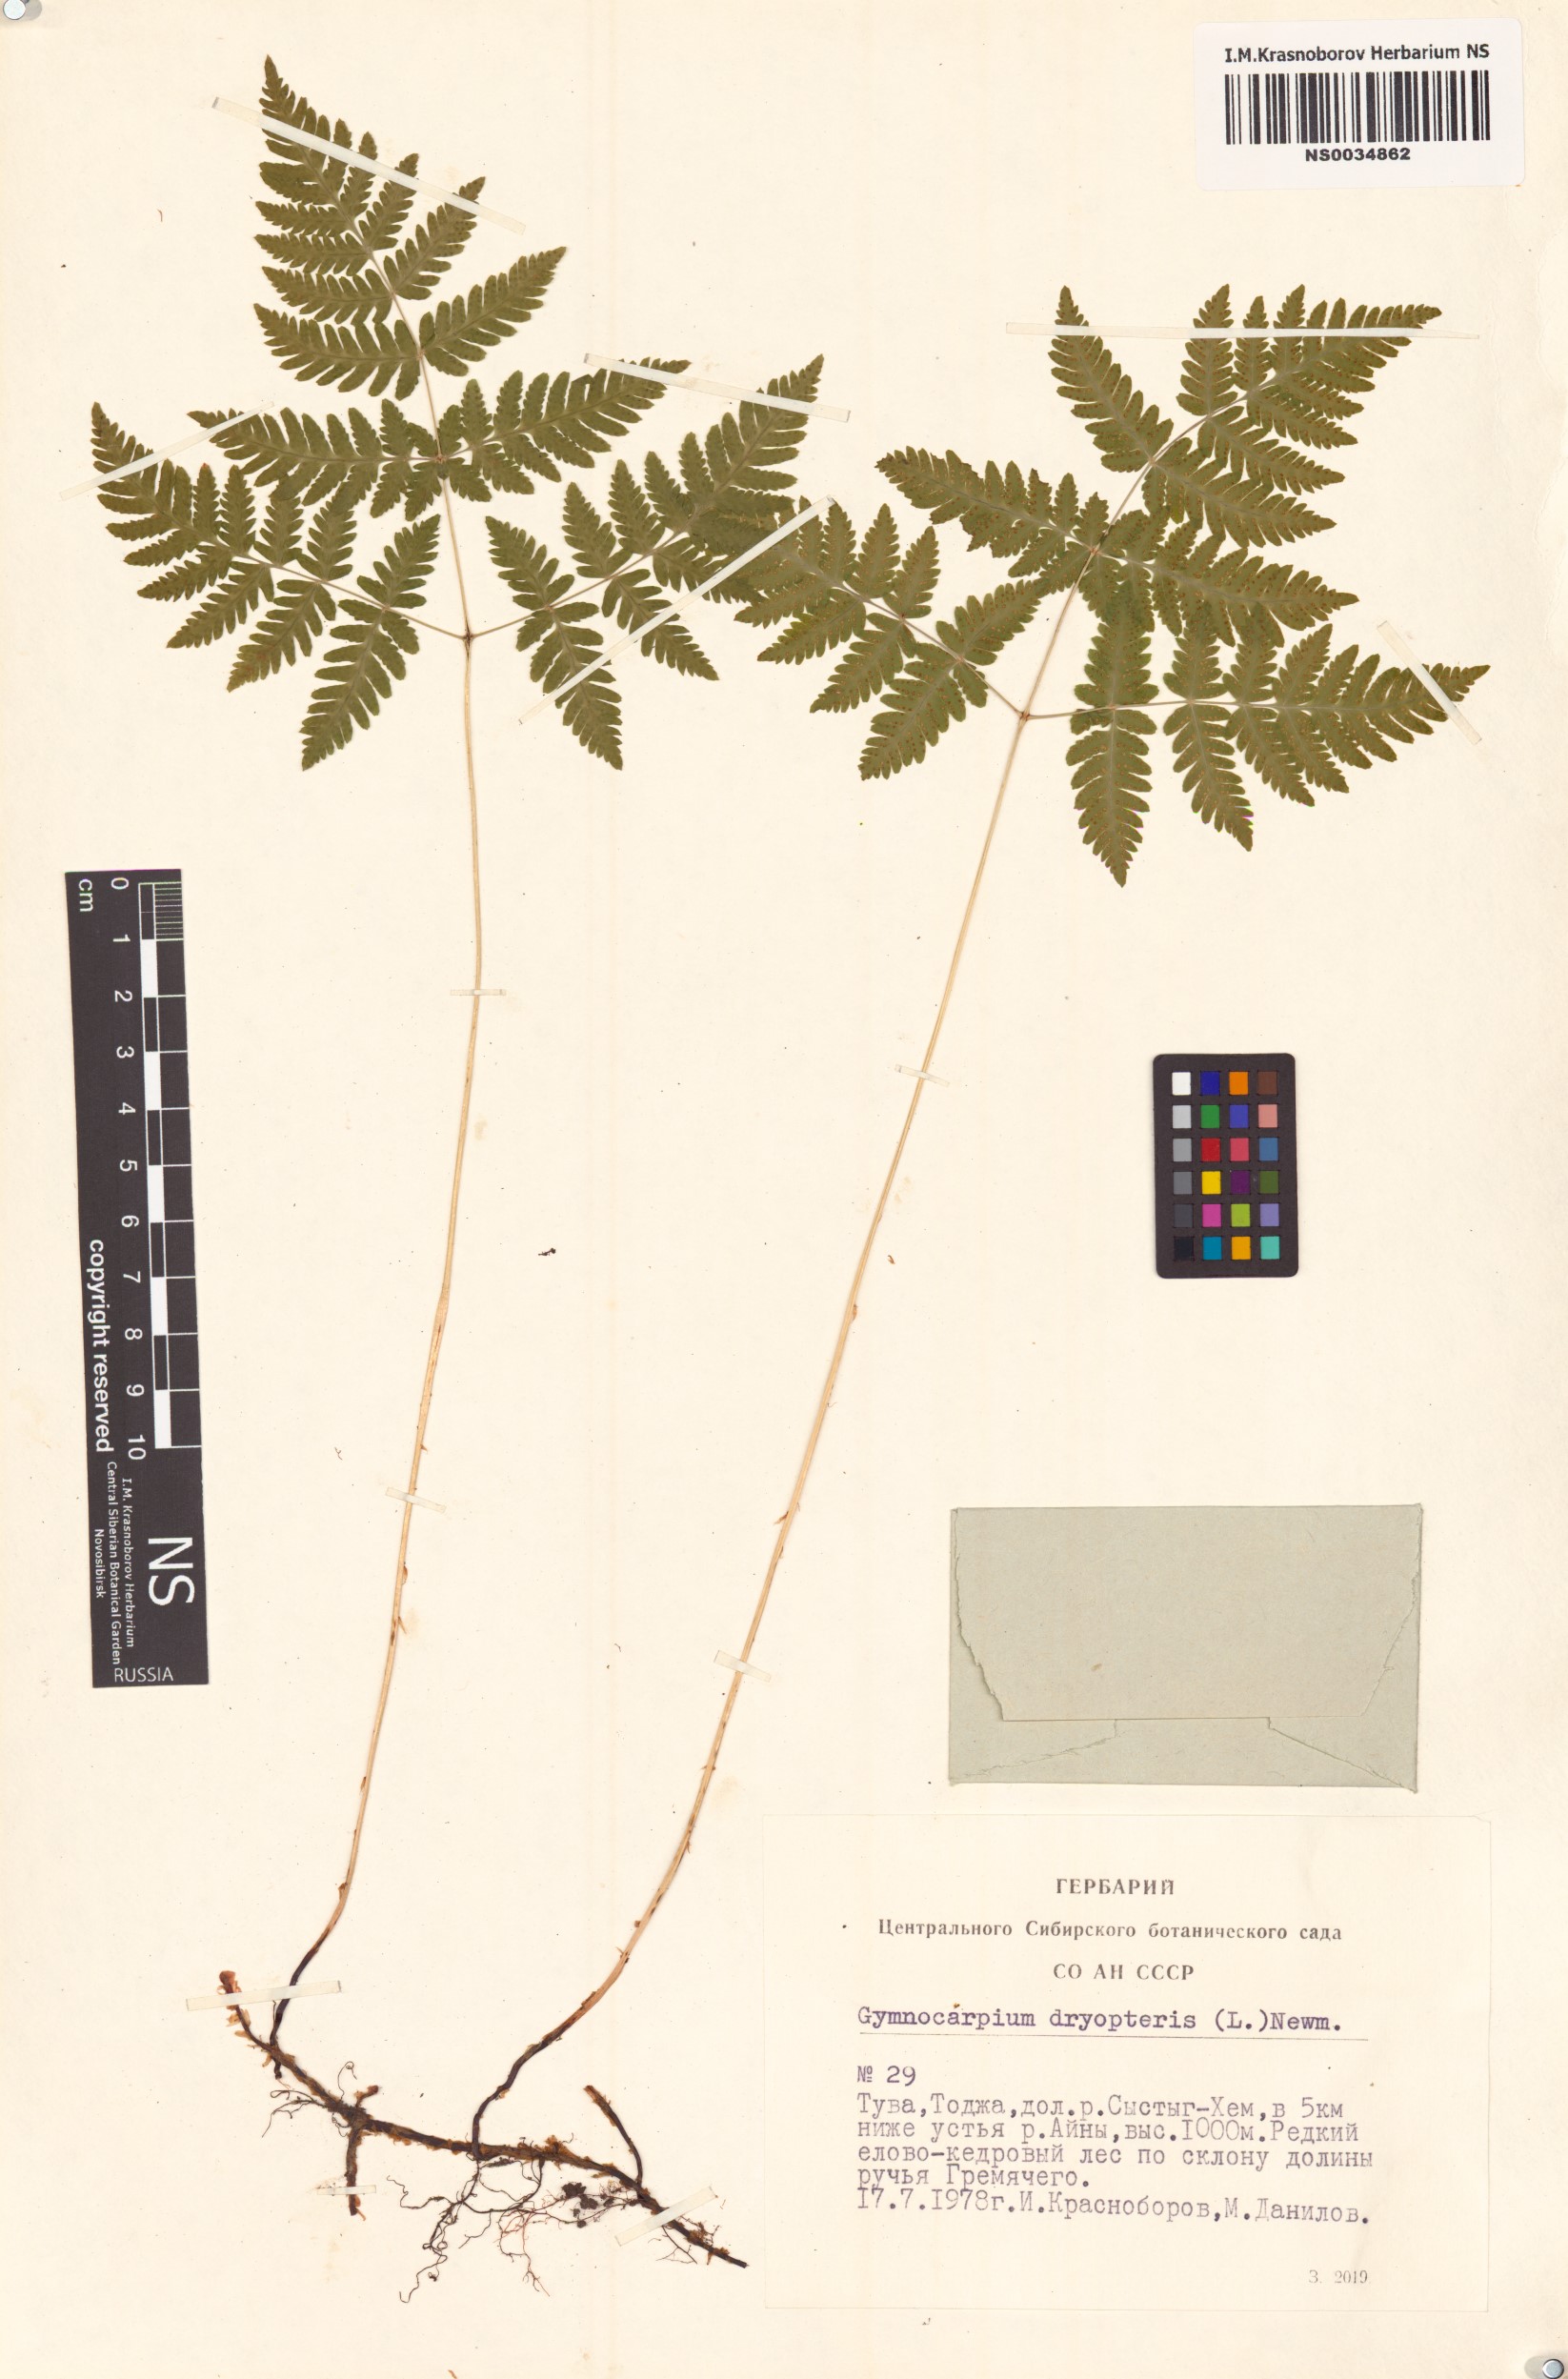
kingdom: Plantae
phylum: Tracheophyta
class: Polypodiopsida
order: Polypodiales
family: Cystopteridaceae
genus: Gymnocarpium
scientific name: Gymnocarpium dryopteris
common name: Oak fern
